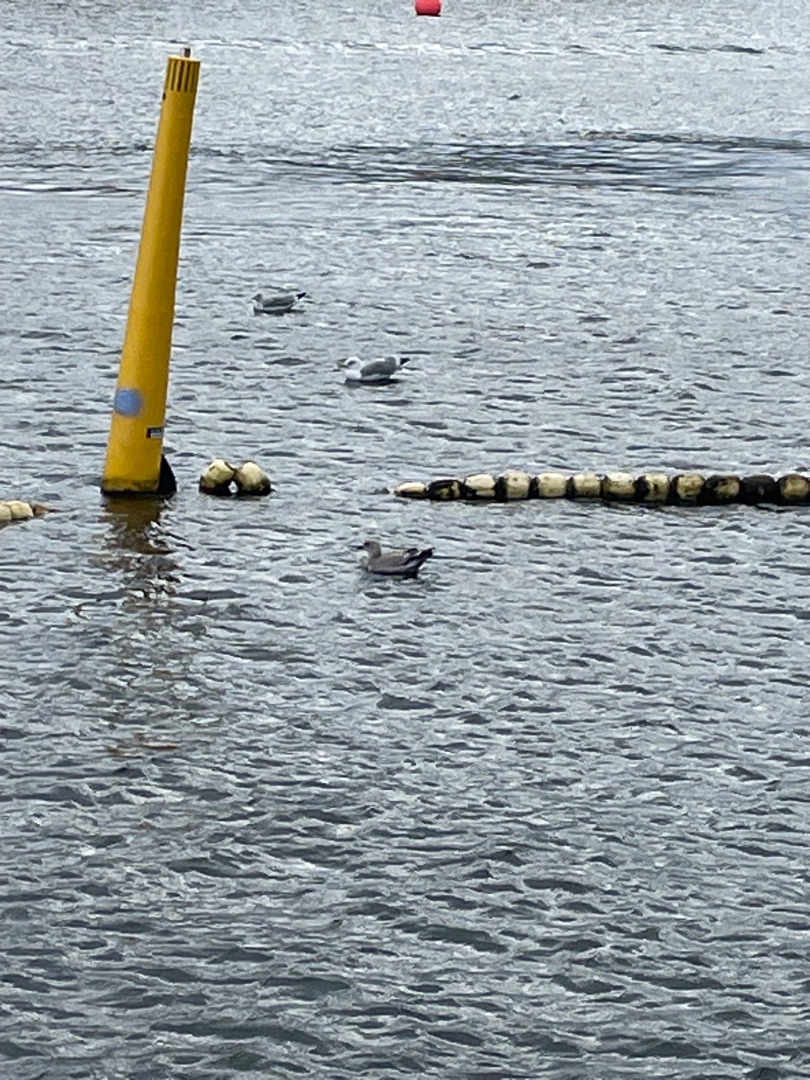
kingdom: Animalia
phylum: Chordata
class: Aves
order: Charadriiformes
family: Laridae
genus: Larus
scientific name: Larus canus
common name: Stormmåge
